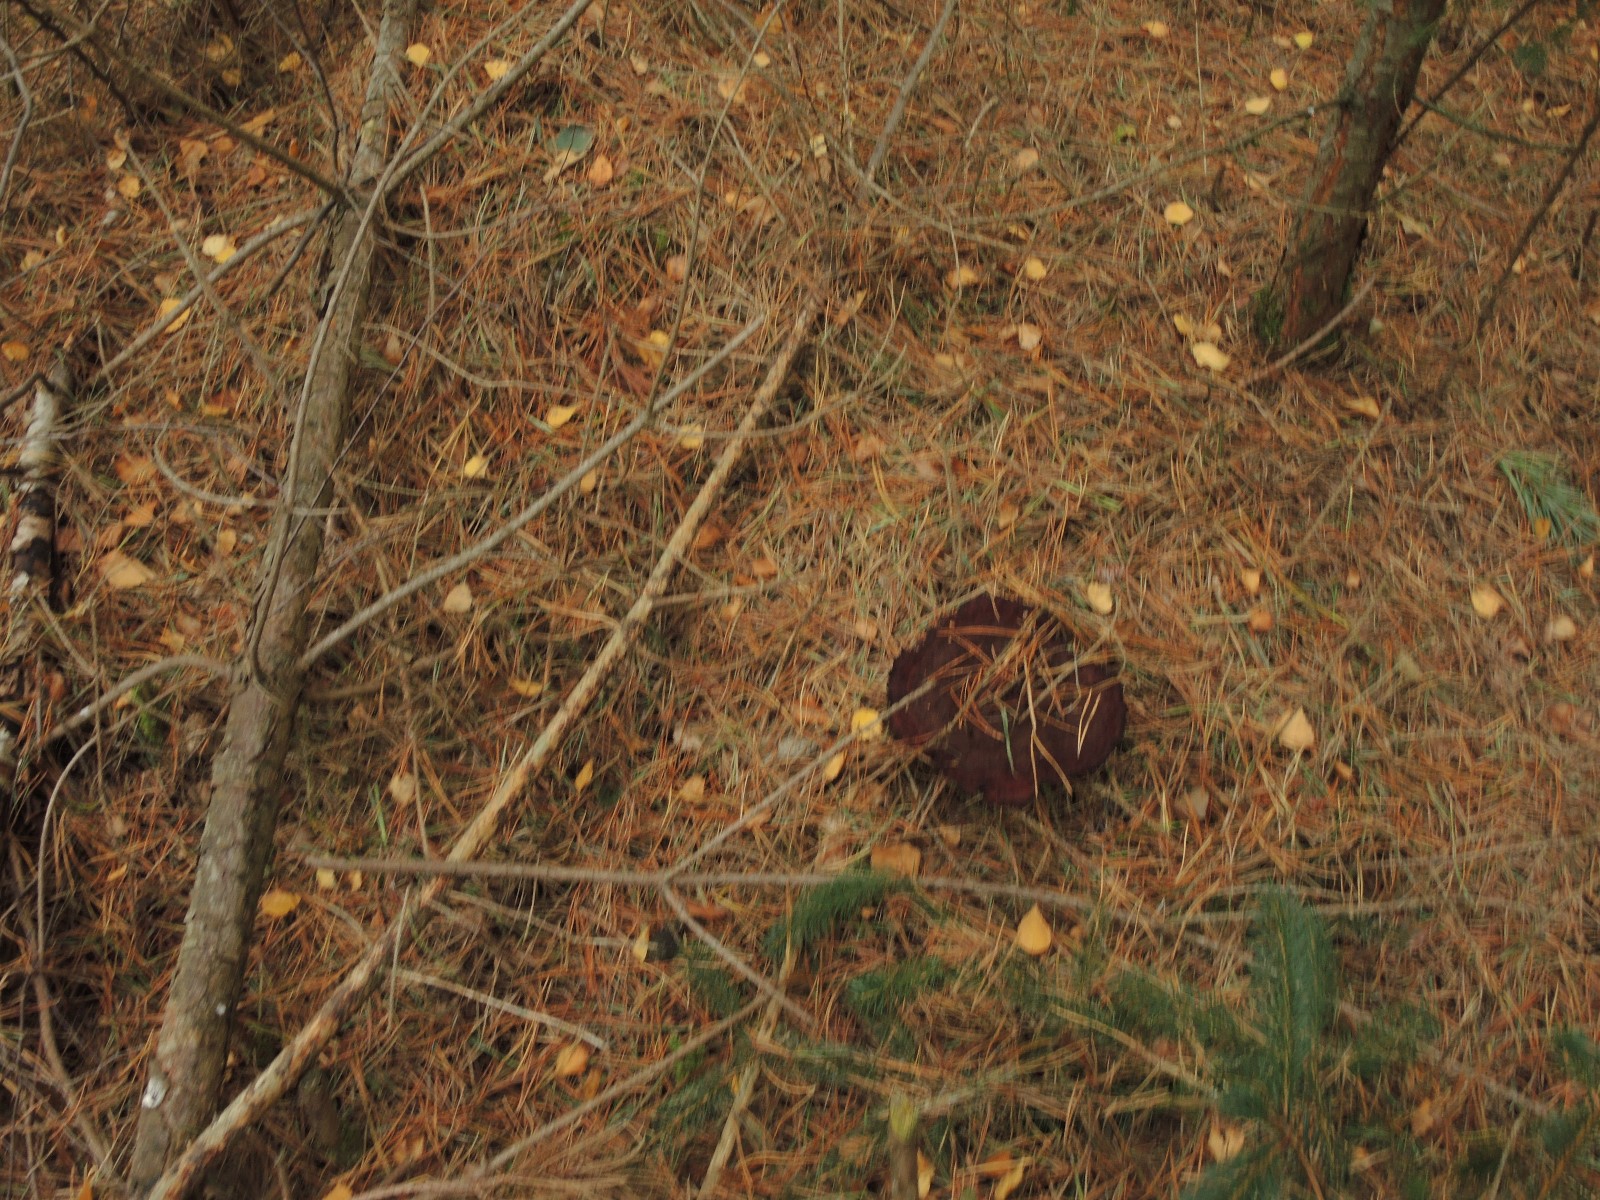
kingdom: Fungi
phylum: Basidiomycota
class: Agaricomycetes
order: Polyporales
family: Laetiporaceae
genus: Phaeolus
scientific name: Phaeolus schweinitzii
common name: brunporesvamp
